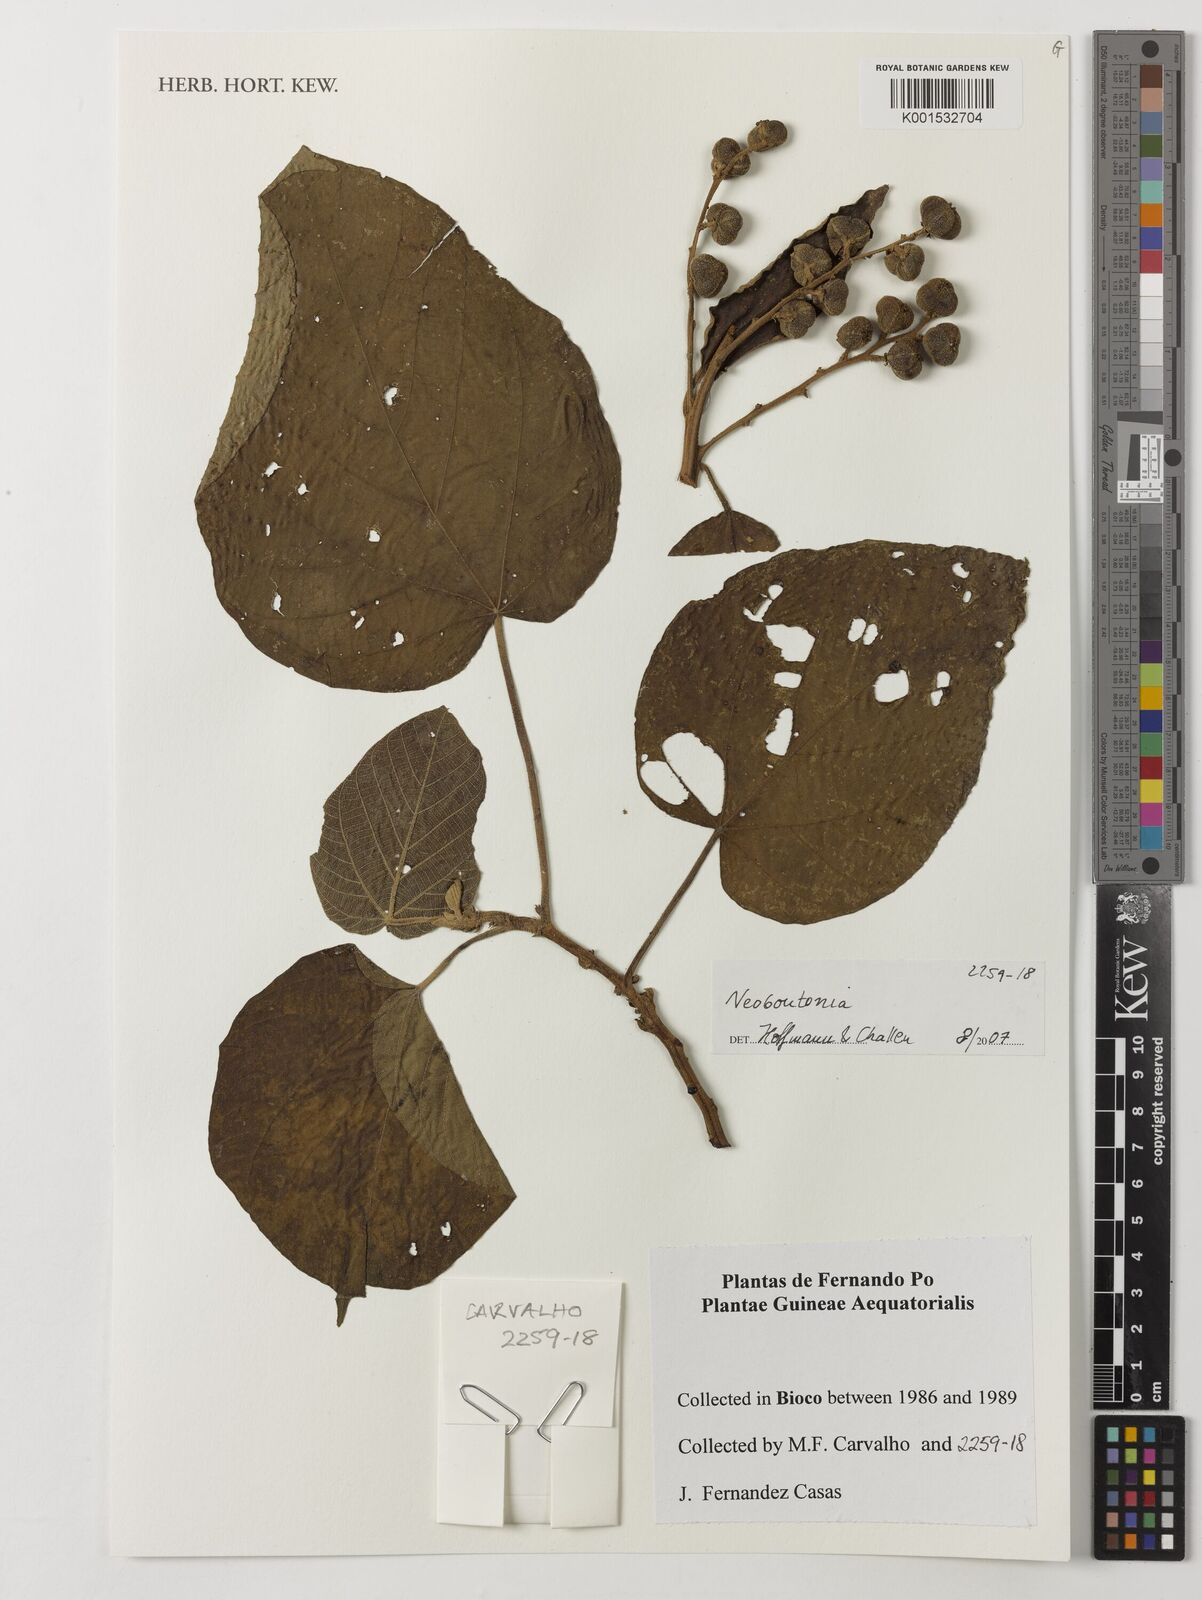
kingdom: Plantae
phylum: Tracheophyta
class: Magnoliopsida
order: Malpighiales
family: Euphorbiaceae
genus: Neoboutonia
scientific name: Neoboutonia
